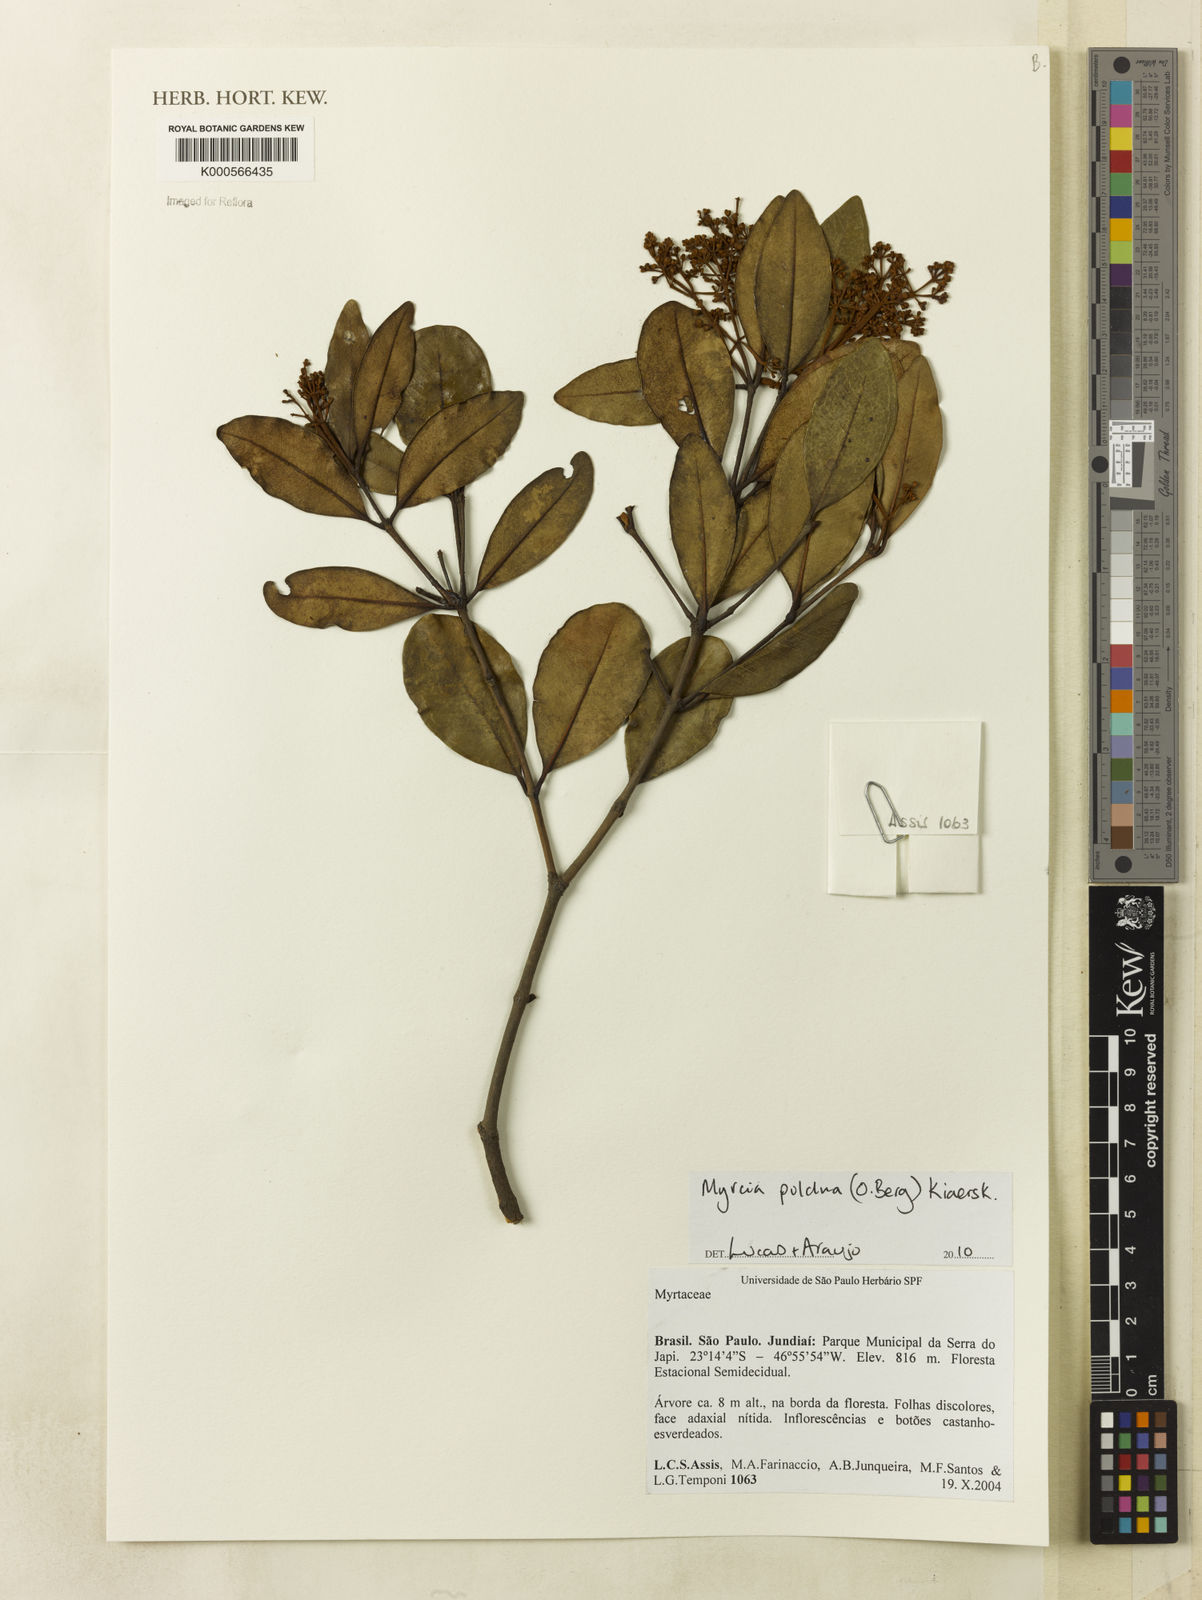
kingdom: Plantae
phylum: Tracheophyta
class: Magnoliopsida
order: Myrtales
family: Myrtaceae
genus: Myrcia
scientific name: Myrcia pulchra
